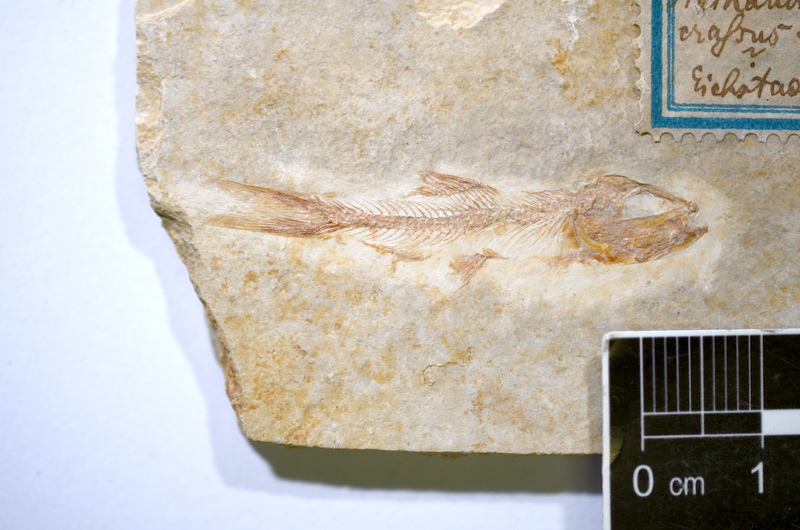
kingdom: Animalia
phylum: Chordata
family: Ascalaboidae
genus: Ascalabos
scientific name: Ascalabos voithii
